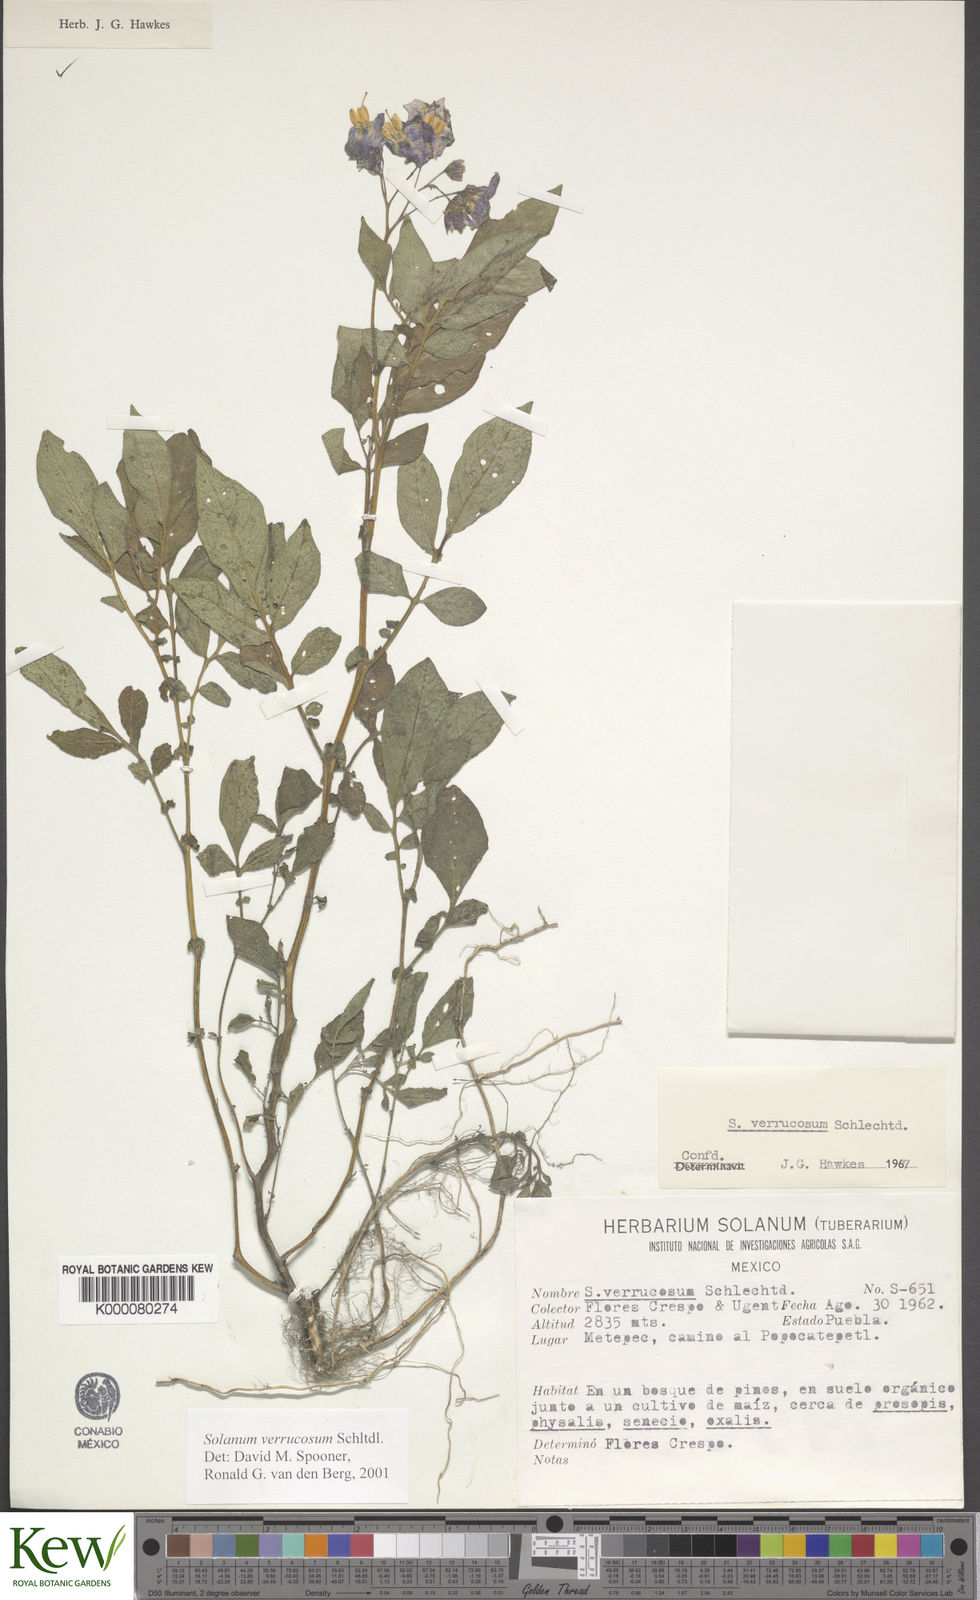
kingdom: Plantae
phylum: Tracheophyta
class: Magnoliopsida
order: Solanales
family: Solanaceae
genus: Solanum
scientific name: Solanum verrucosum
